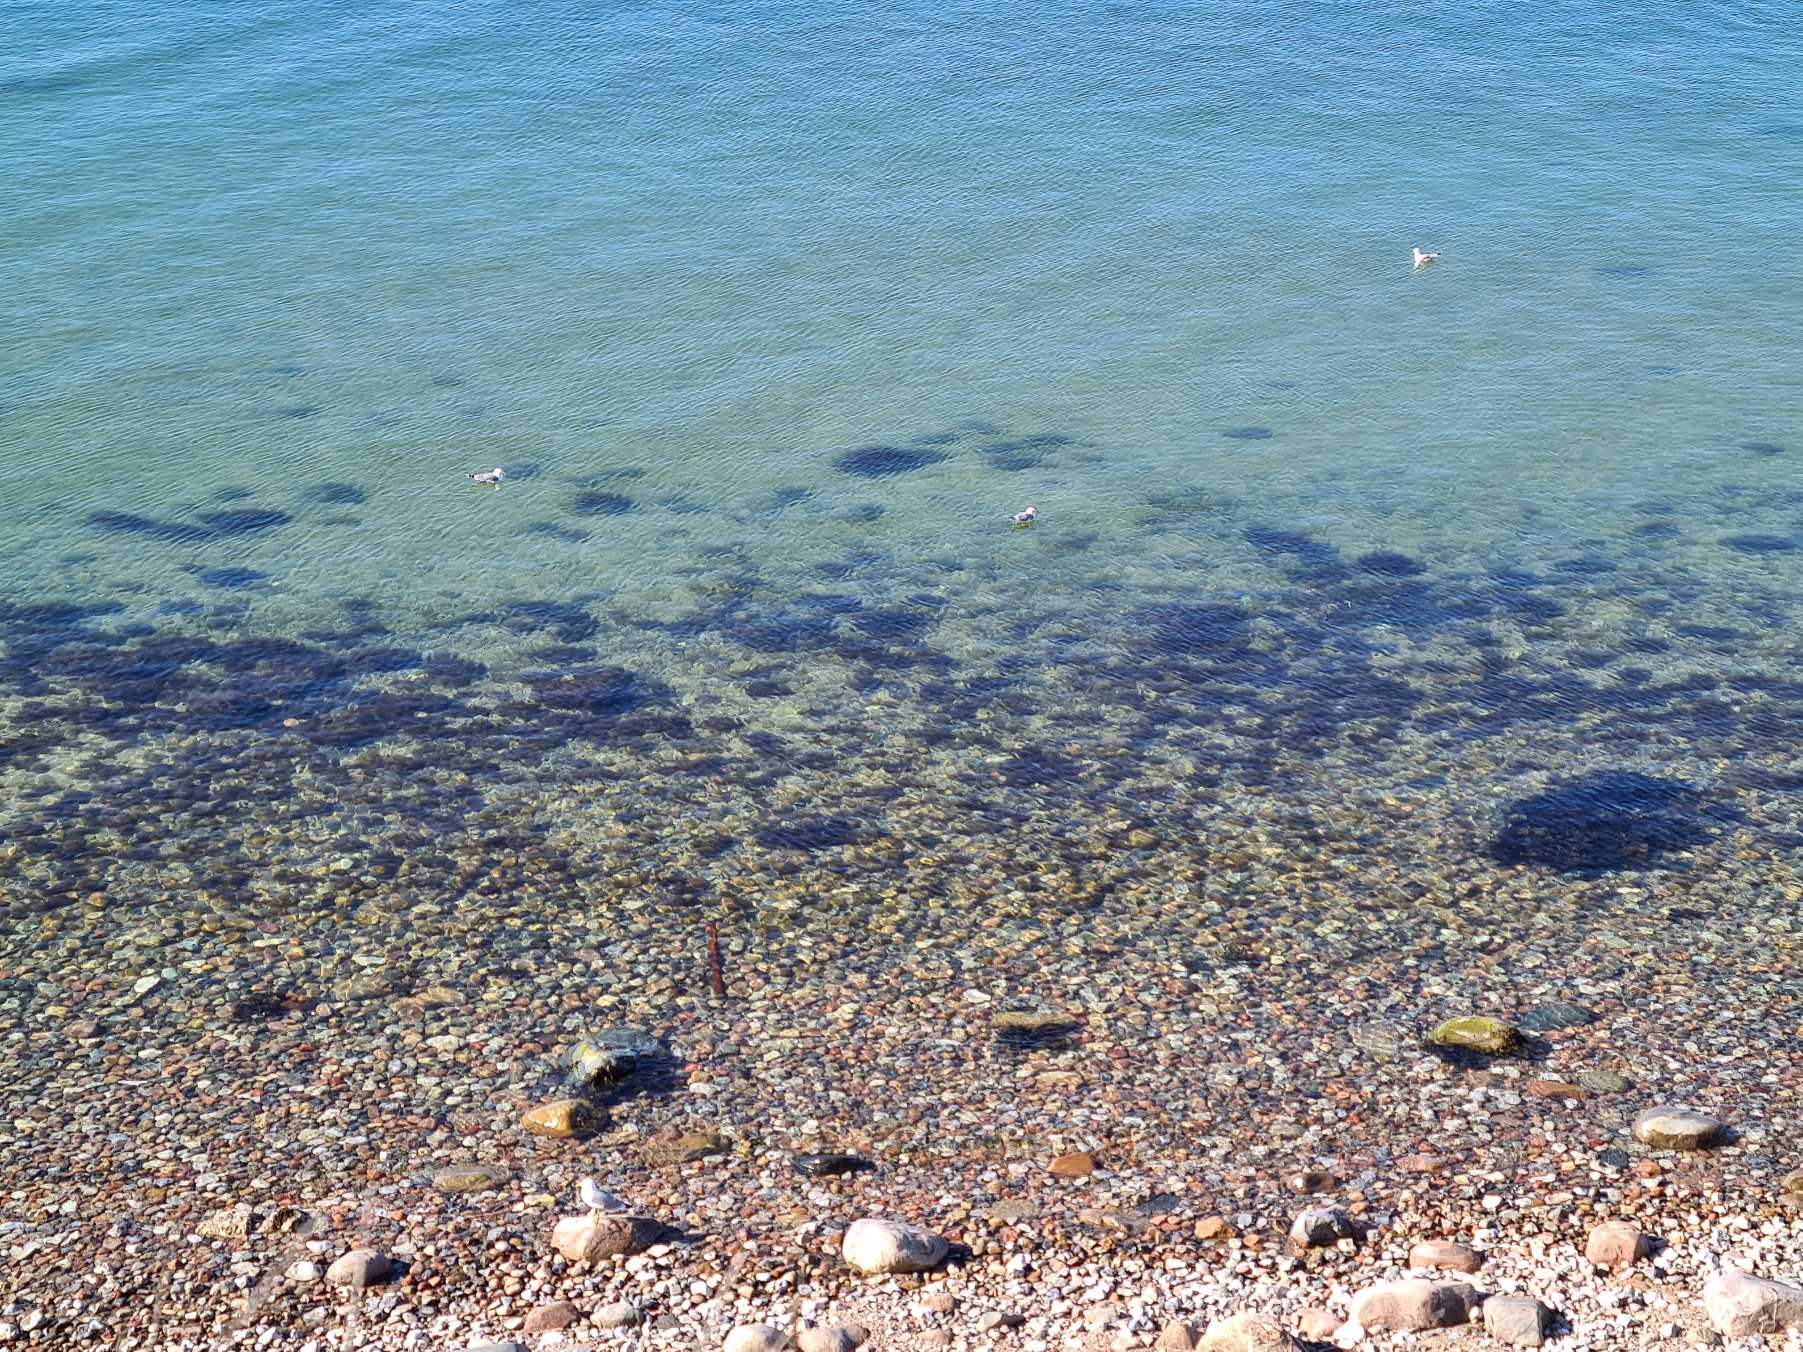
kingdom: Animalia
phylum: Chordata
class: Aves
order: Charadriiformes
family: Laridae
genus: Larus
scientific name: Larus canus
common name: Stormmåge
